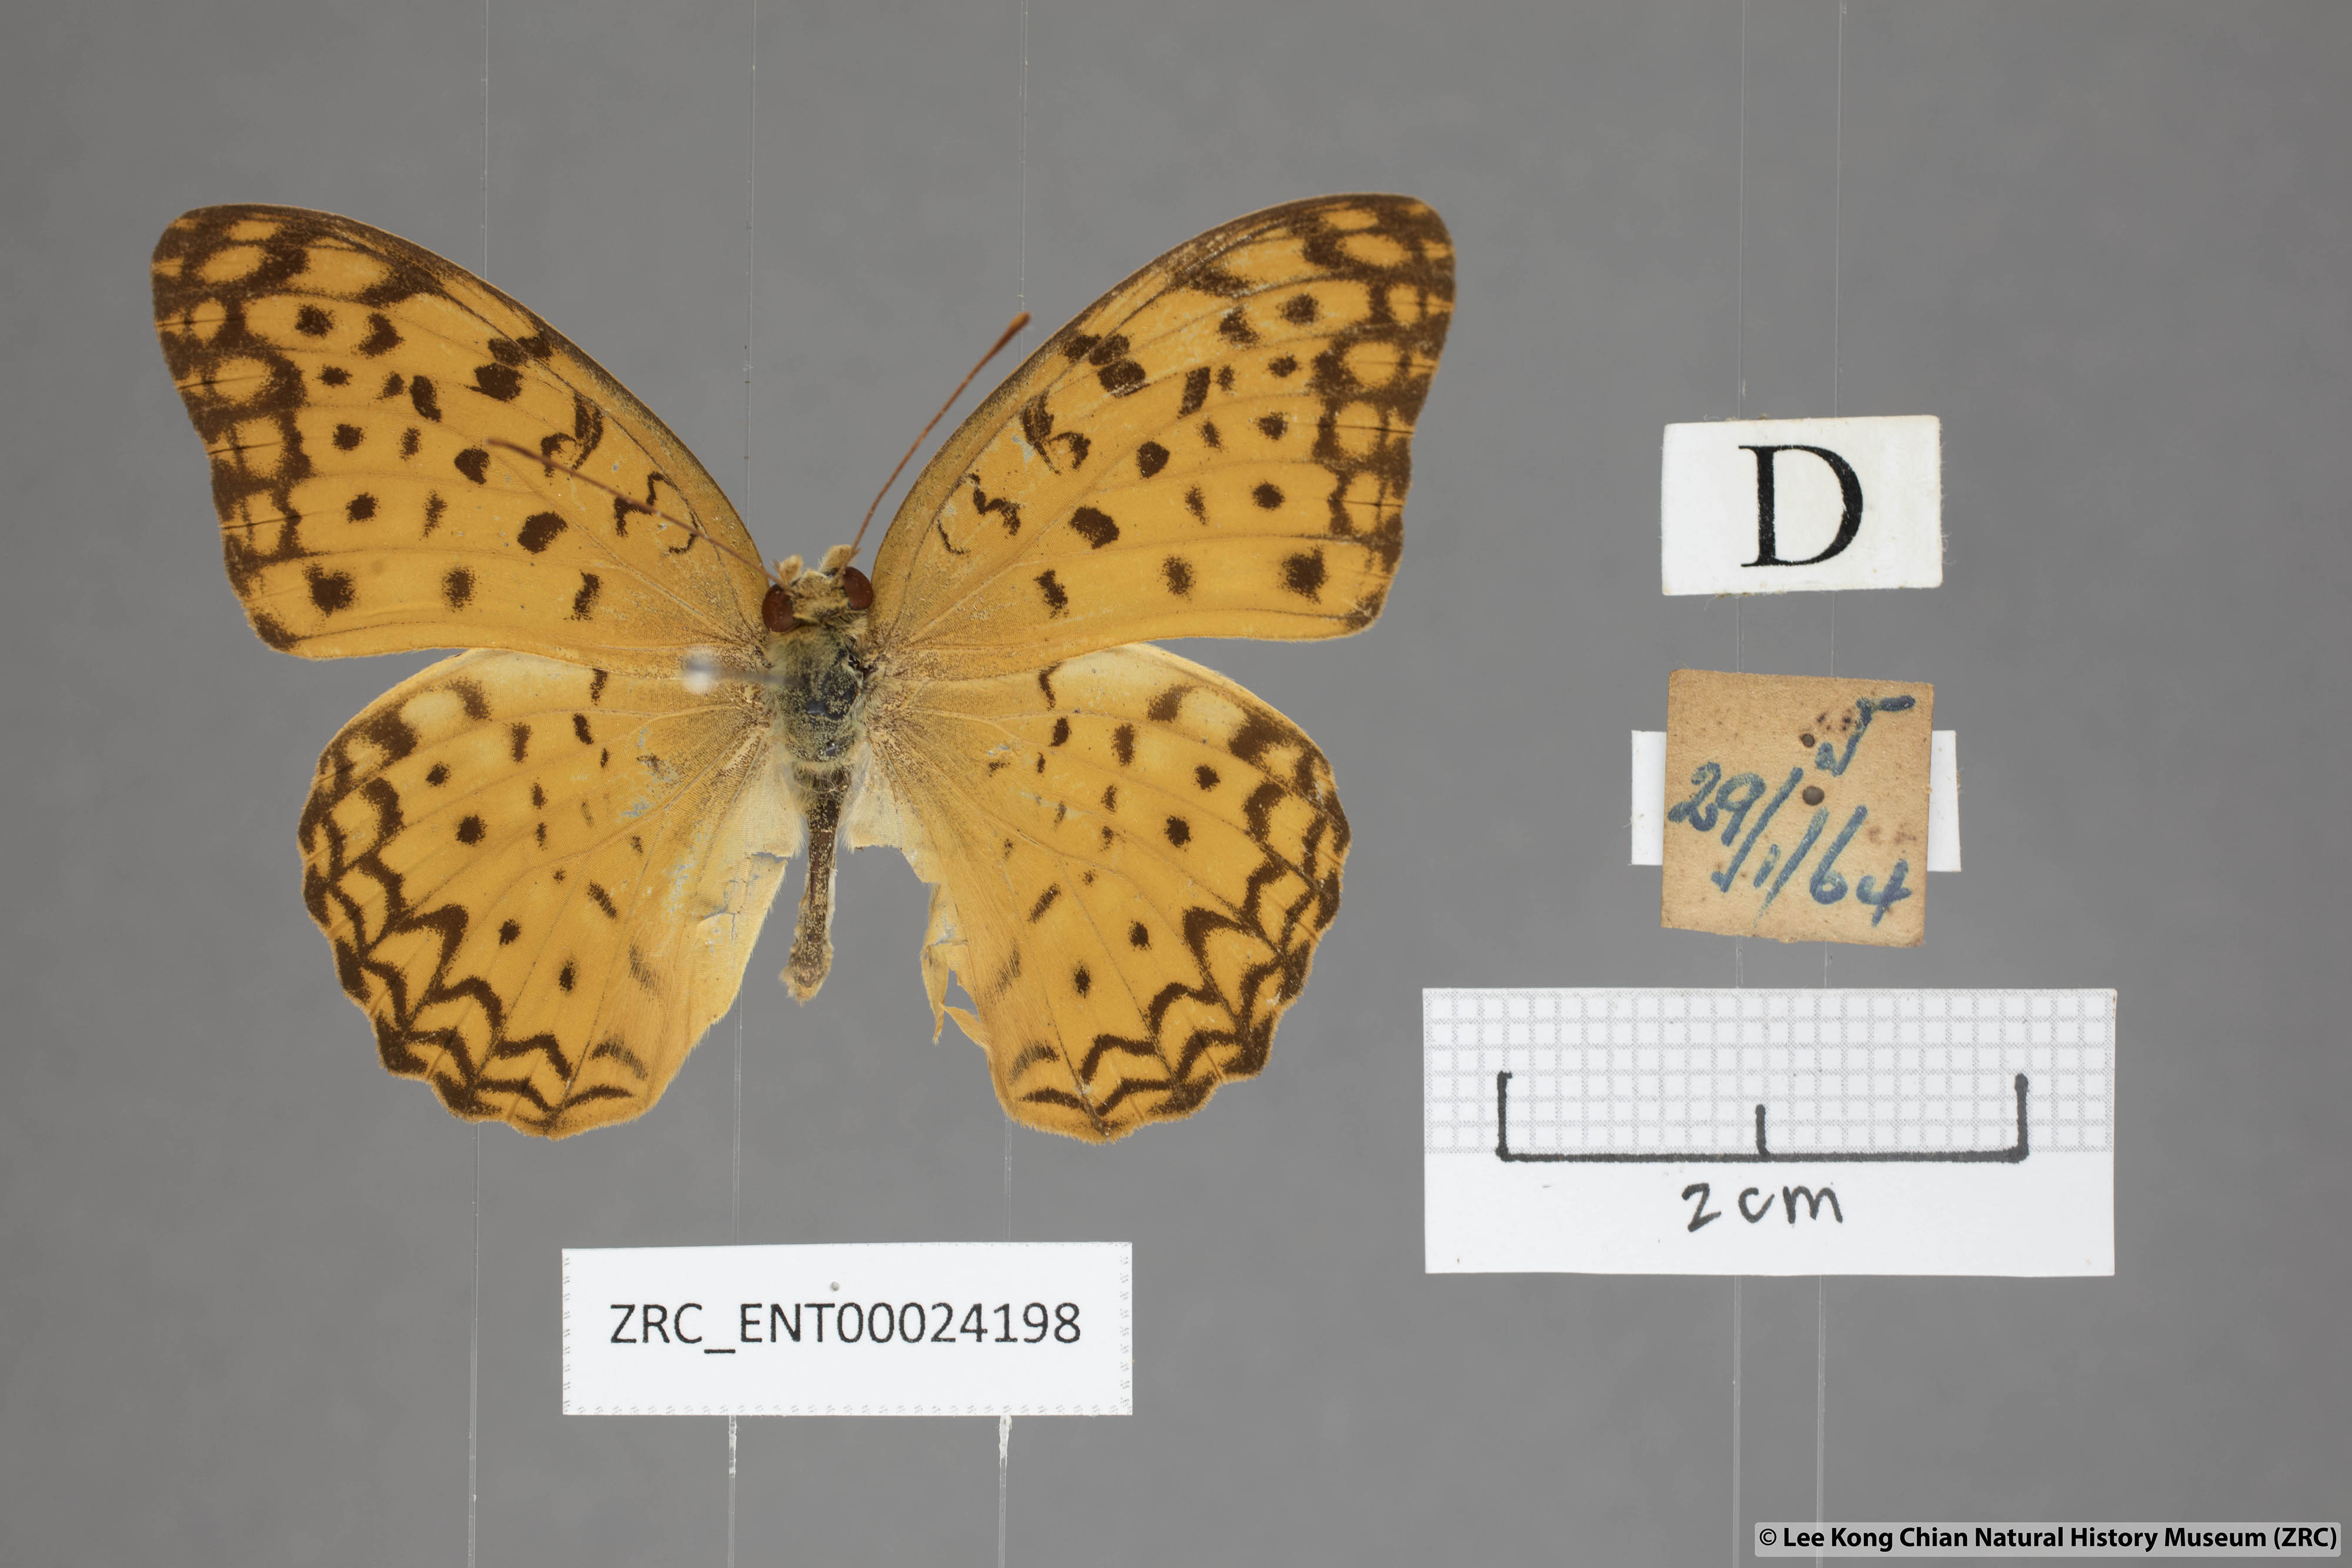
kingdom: Animalia
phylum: Arthropoda
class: Insecta
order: Lepidoptera
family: Nymphalidae
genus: Phalanta
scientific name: Phalanta phalantha
